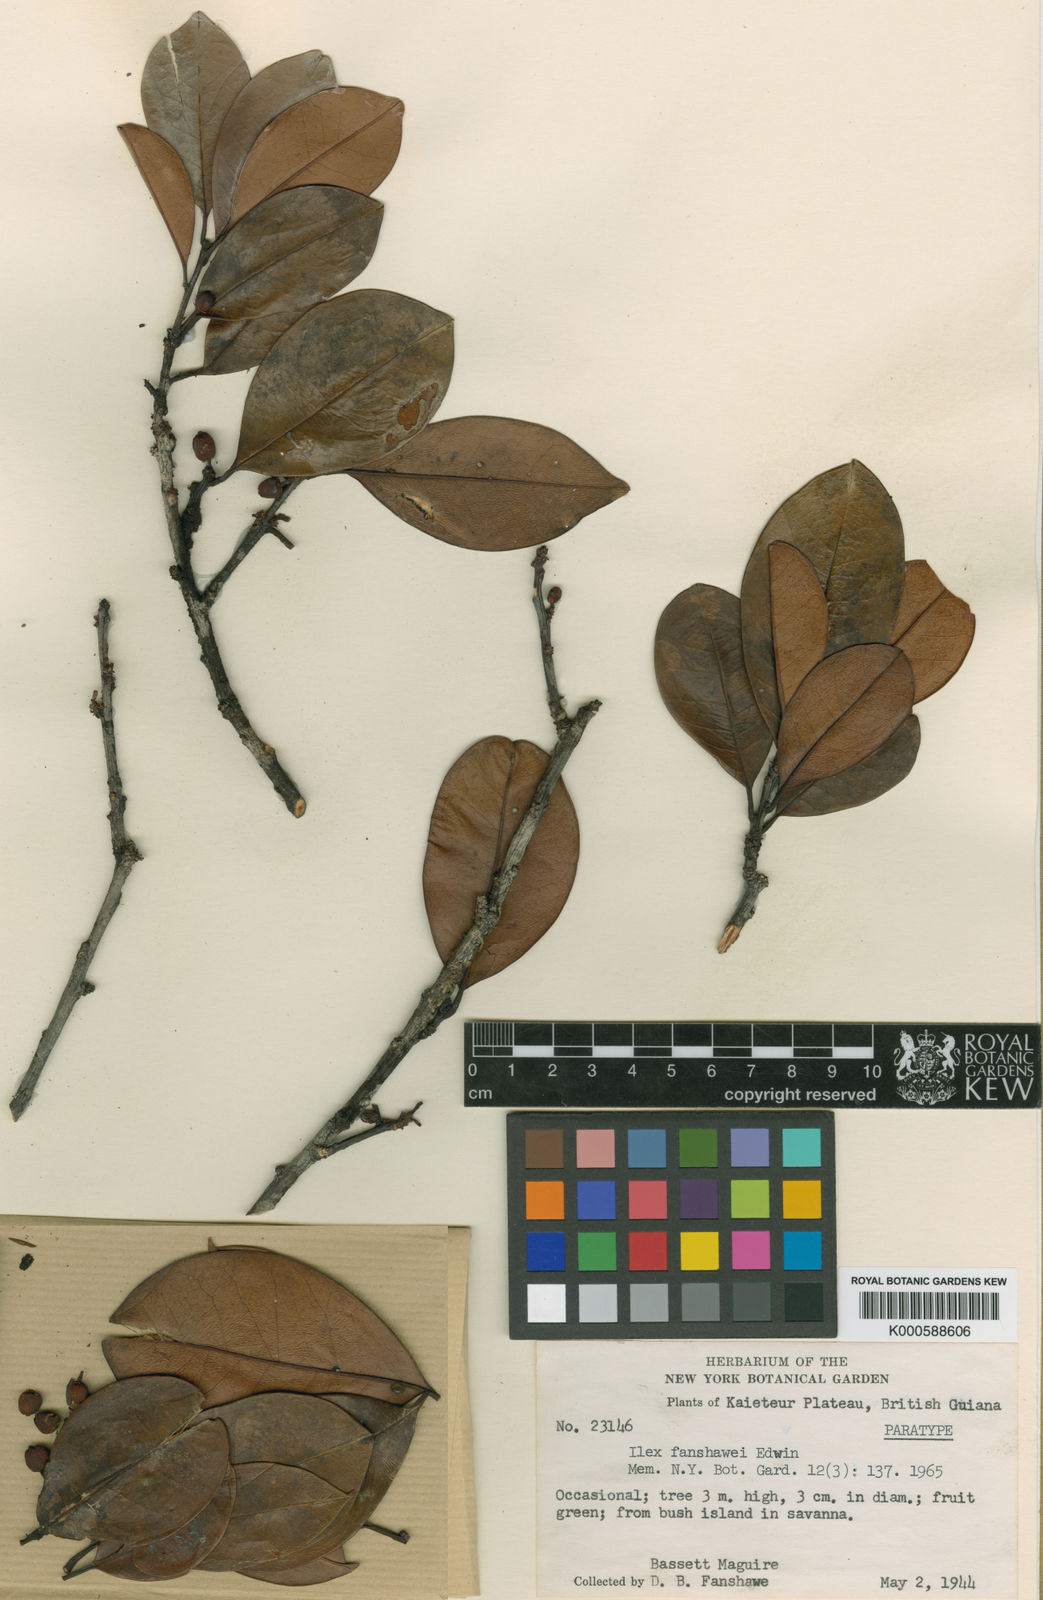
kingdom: Plantae
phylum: Tracheophyta
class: Magnoliopsida
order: Aquifoliales
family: Aquifoliaceae
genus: Ilex
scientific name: Ilex fanshawei
